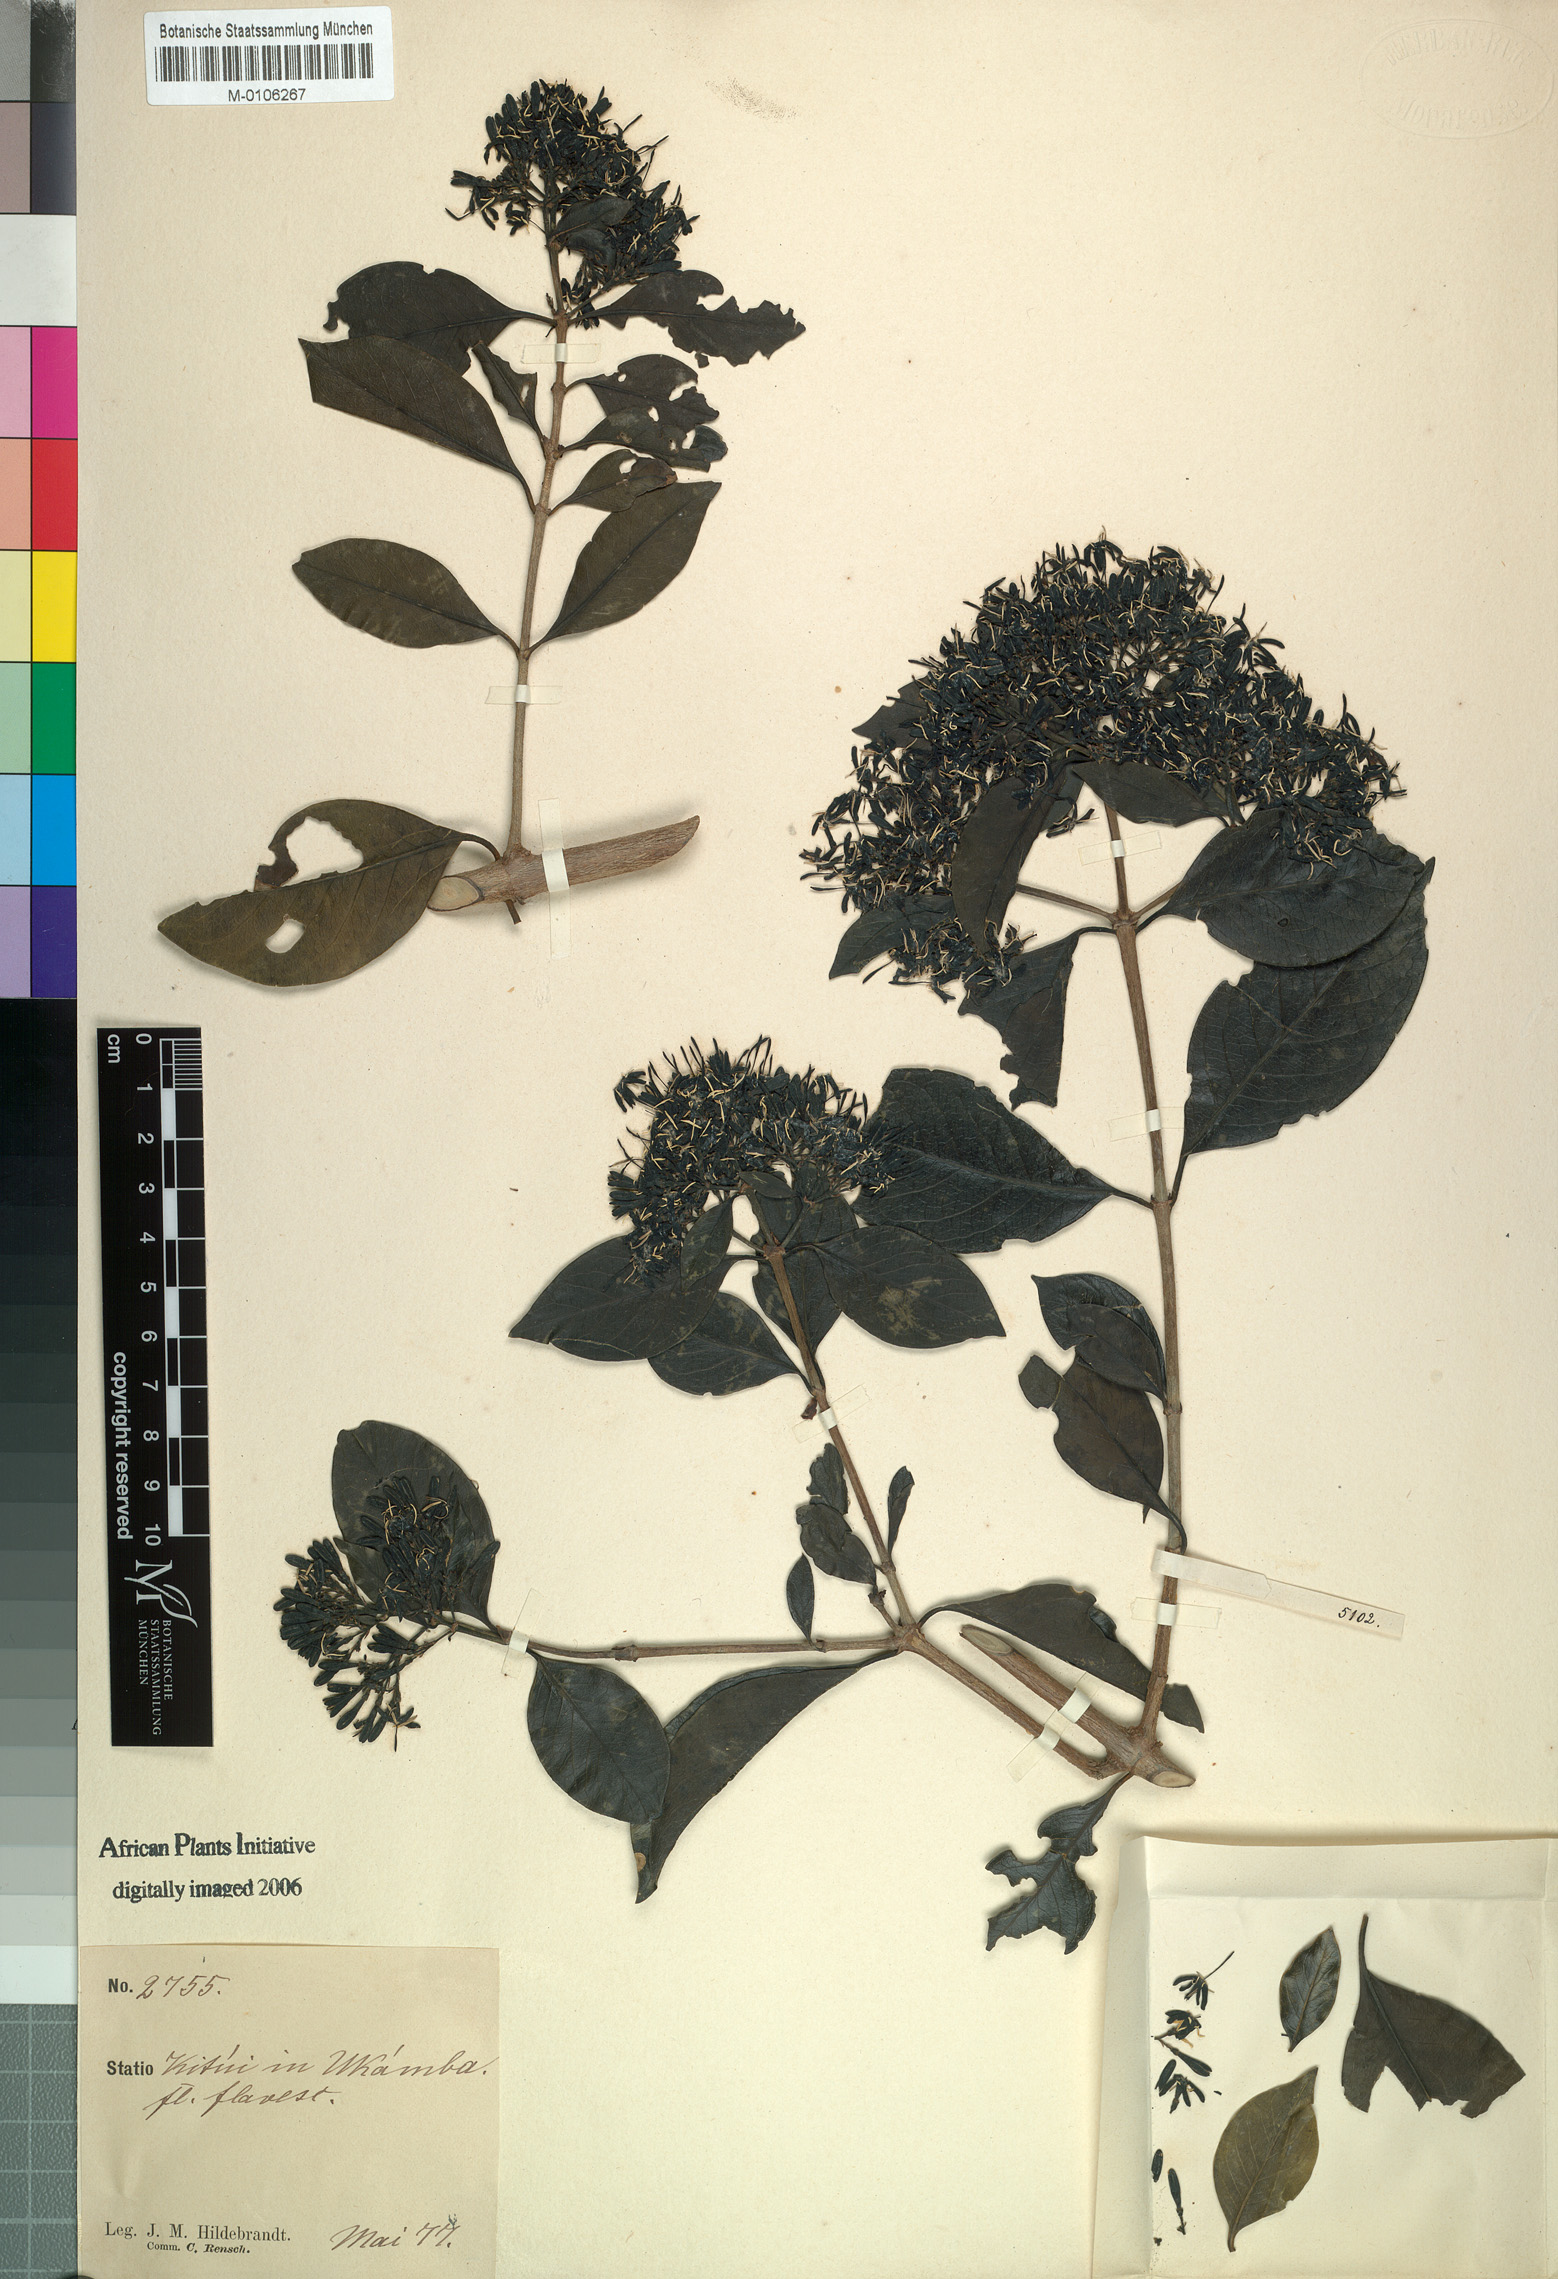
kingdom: Plantae
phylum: Tracheophyta
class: Magnoliopsida
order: Gentianales
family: Rubiaceae
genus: Coptosperma
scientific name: Coptosperma graveolens
